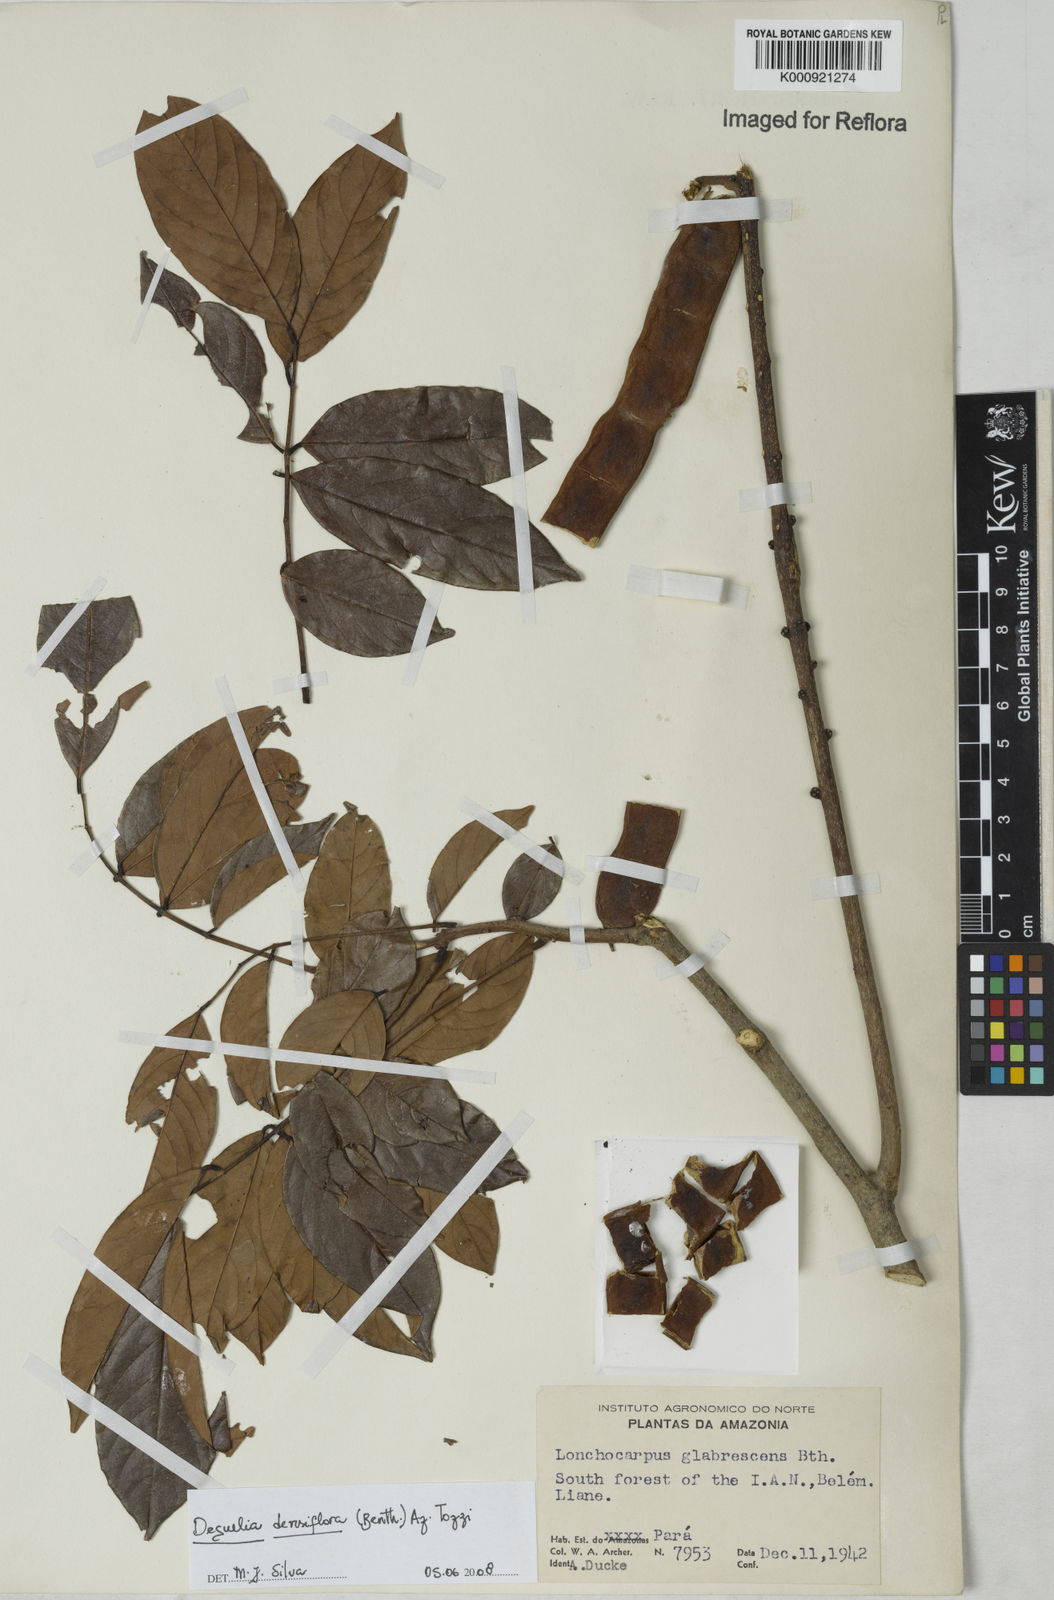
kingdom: Plantae
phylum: Tracheophyta
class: Magnoliopsida
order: Fabales
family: Fabaceae
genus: Deguelia
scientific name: Deguelia
